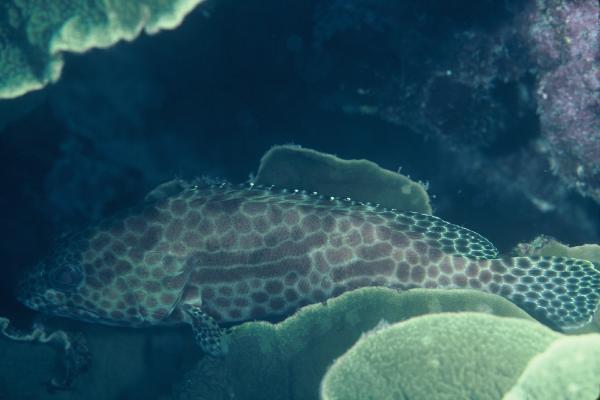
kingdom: Animalia
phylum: Chordata
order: Perciformes
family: Serranidae
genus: Epinephelus
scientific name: Epinephelus merra
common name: Honeycomb grouper
